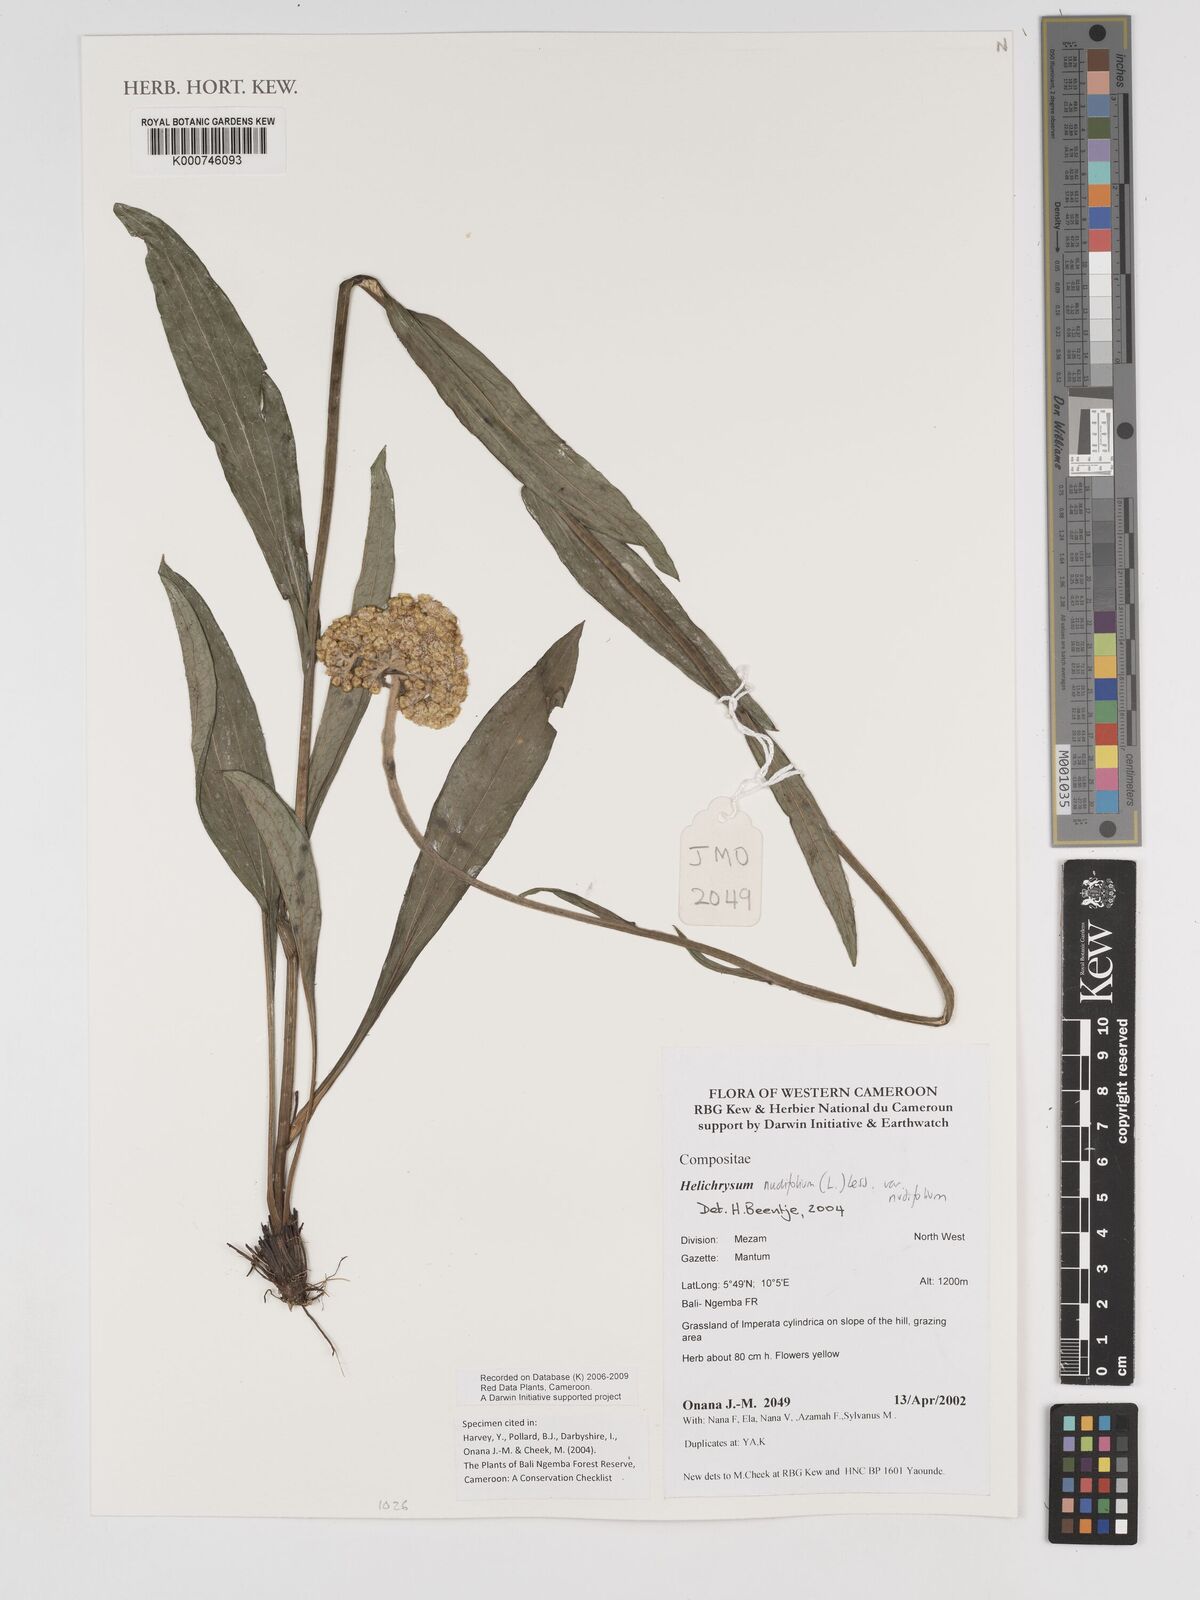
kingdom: Plantae
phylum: Tracheophyta
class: Magnoliopsida
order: Asterales
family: Asteraceae
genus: Helichrysum
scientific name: Helichrysum nudifolium
